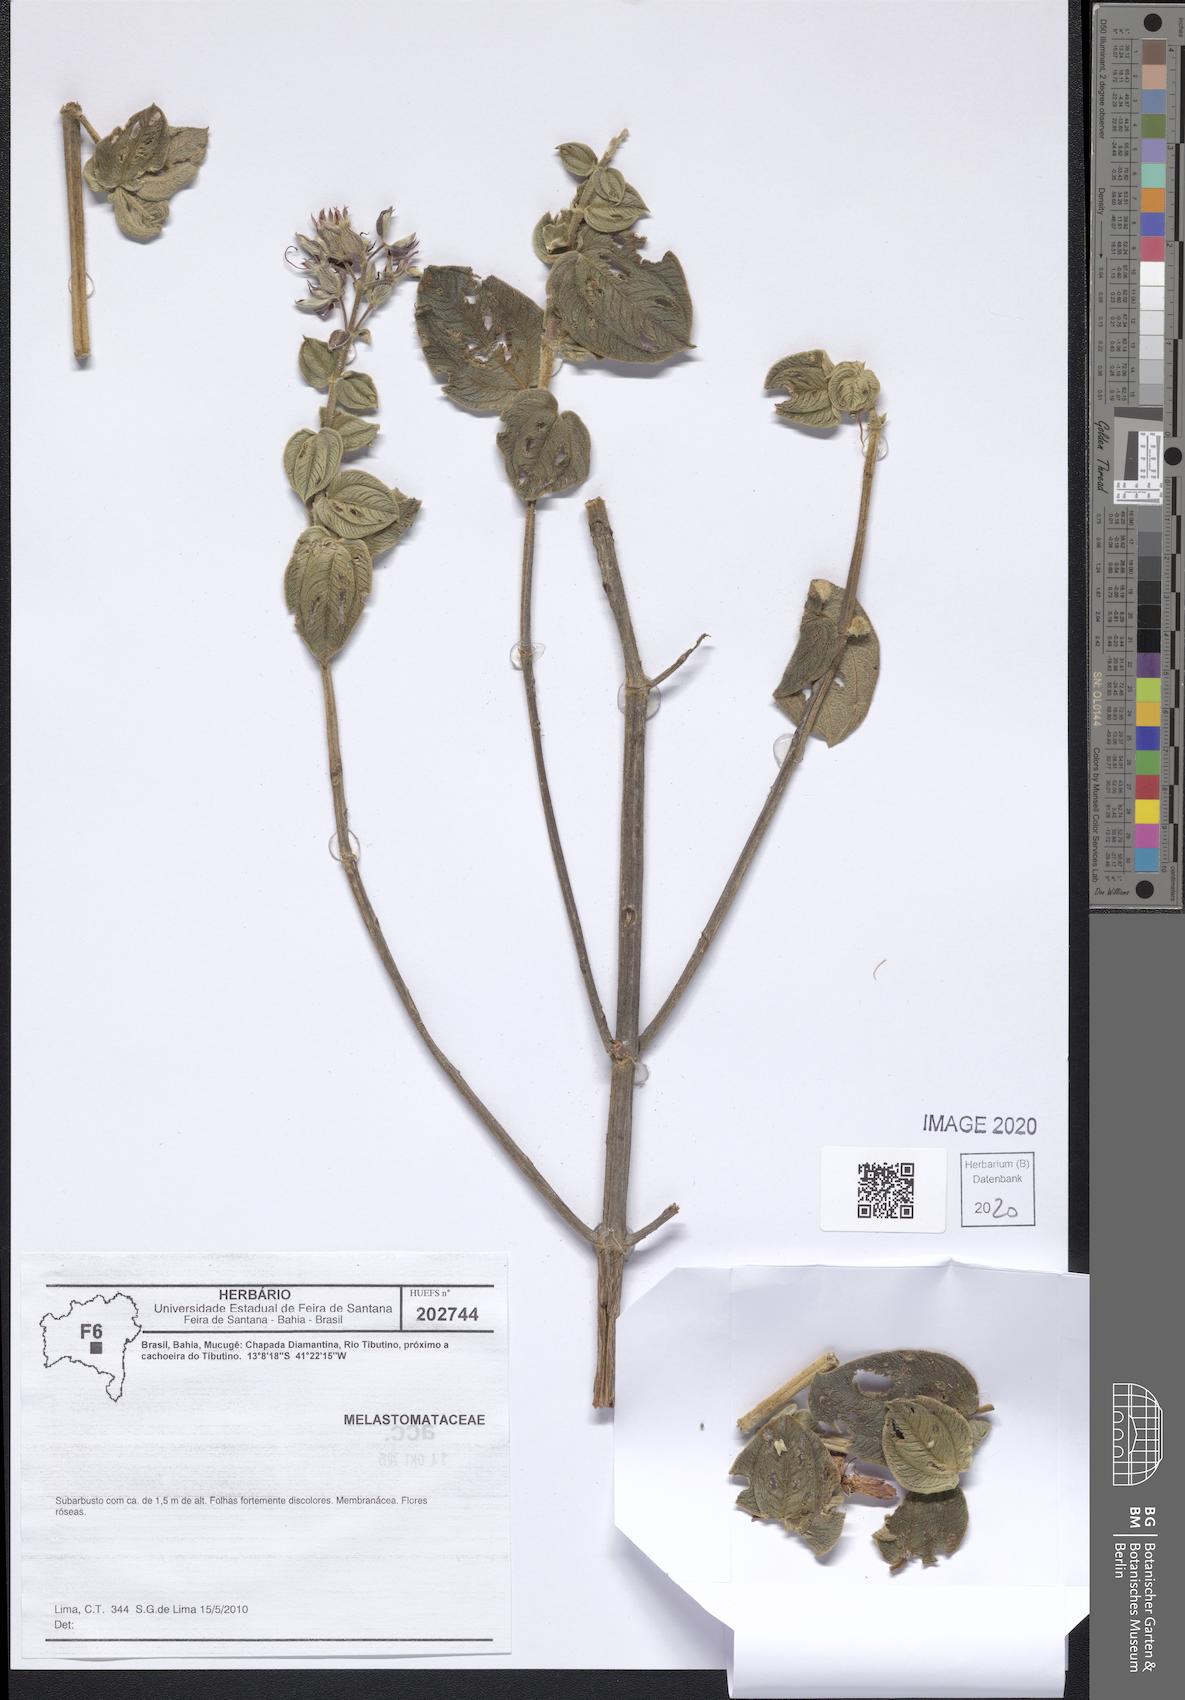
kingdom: Plantae
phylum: Tracheophyta
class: Magnoliopsida
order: Myrtales
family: Melastomataceae
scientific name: Melastomataceae
